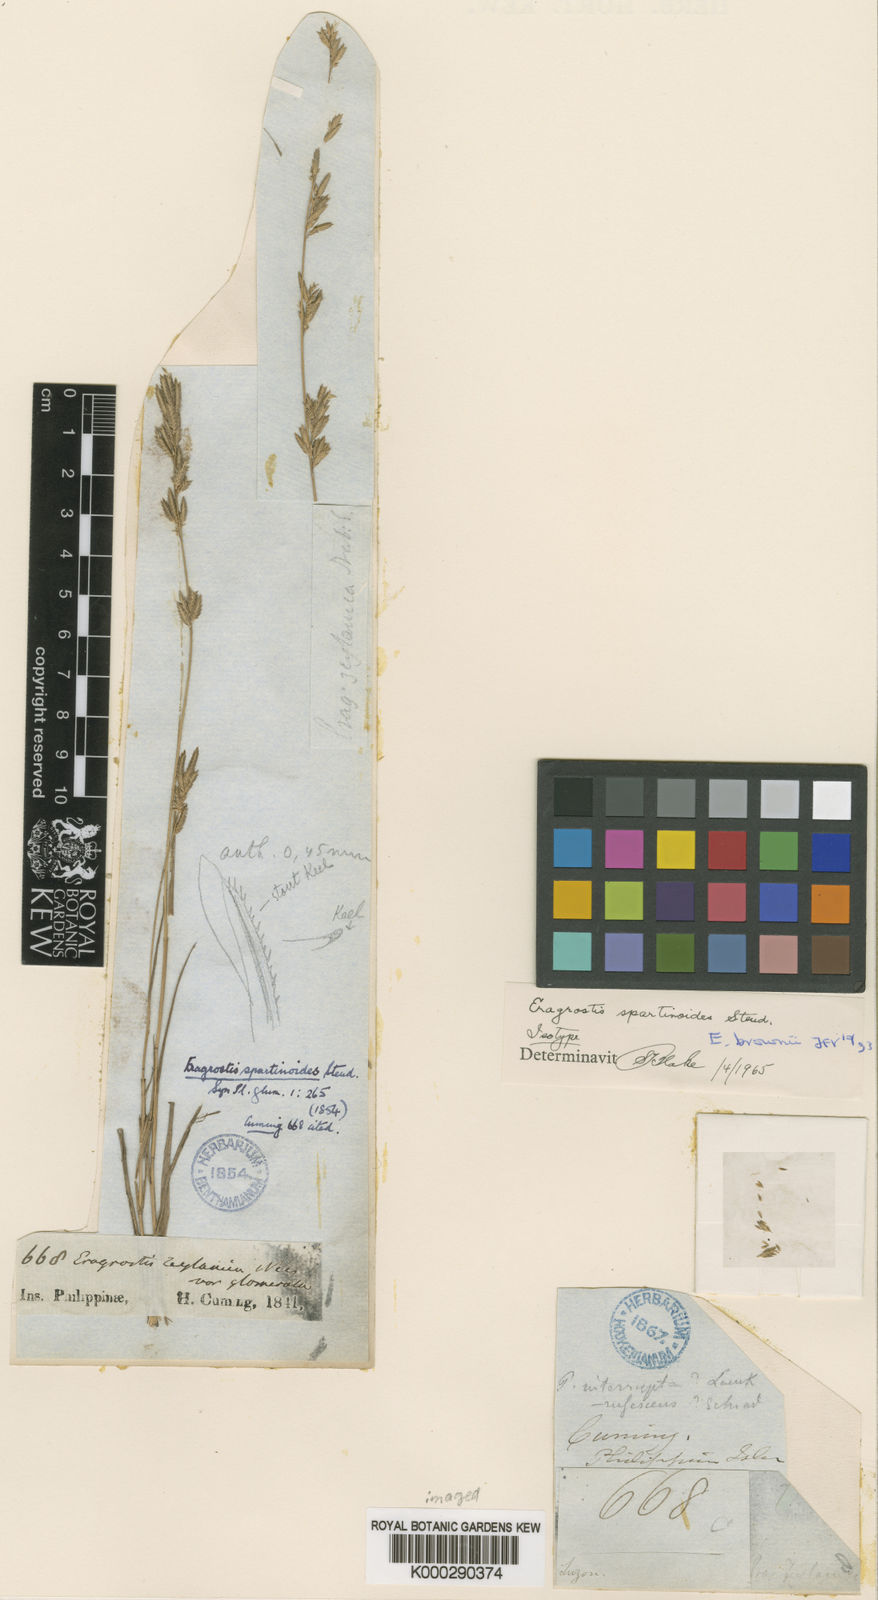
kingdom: Plantae
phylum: Tracheophyta
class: Liliopsida
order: Poales
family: Poaceae
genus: Eragrostis
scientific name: Eragrostis brownii
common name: Lovegrass
